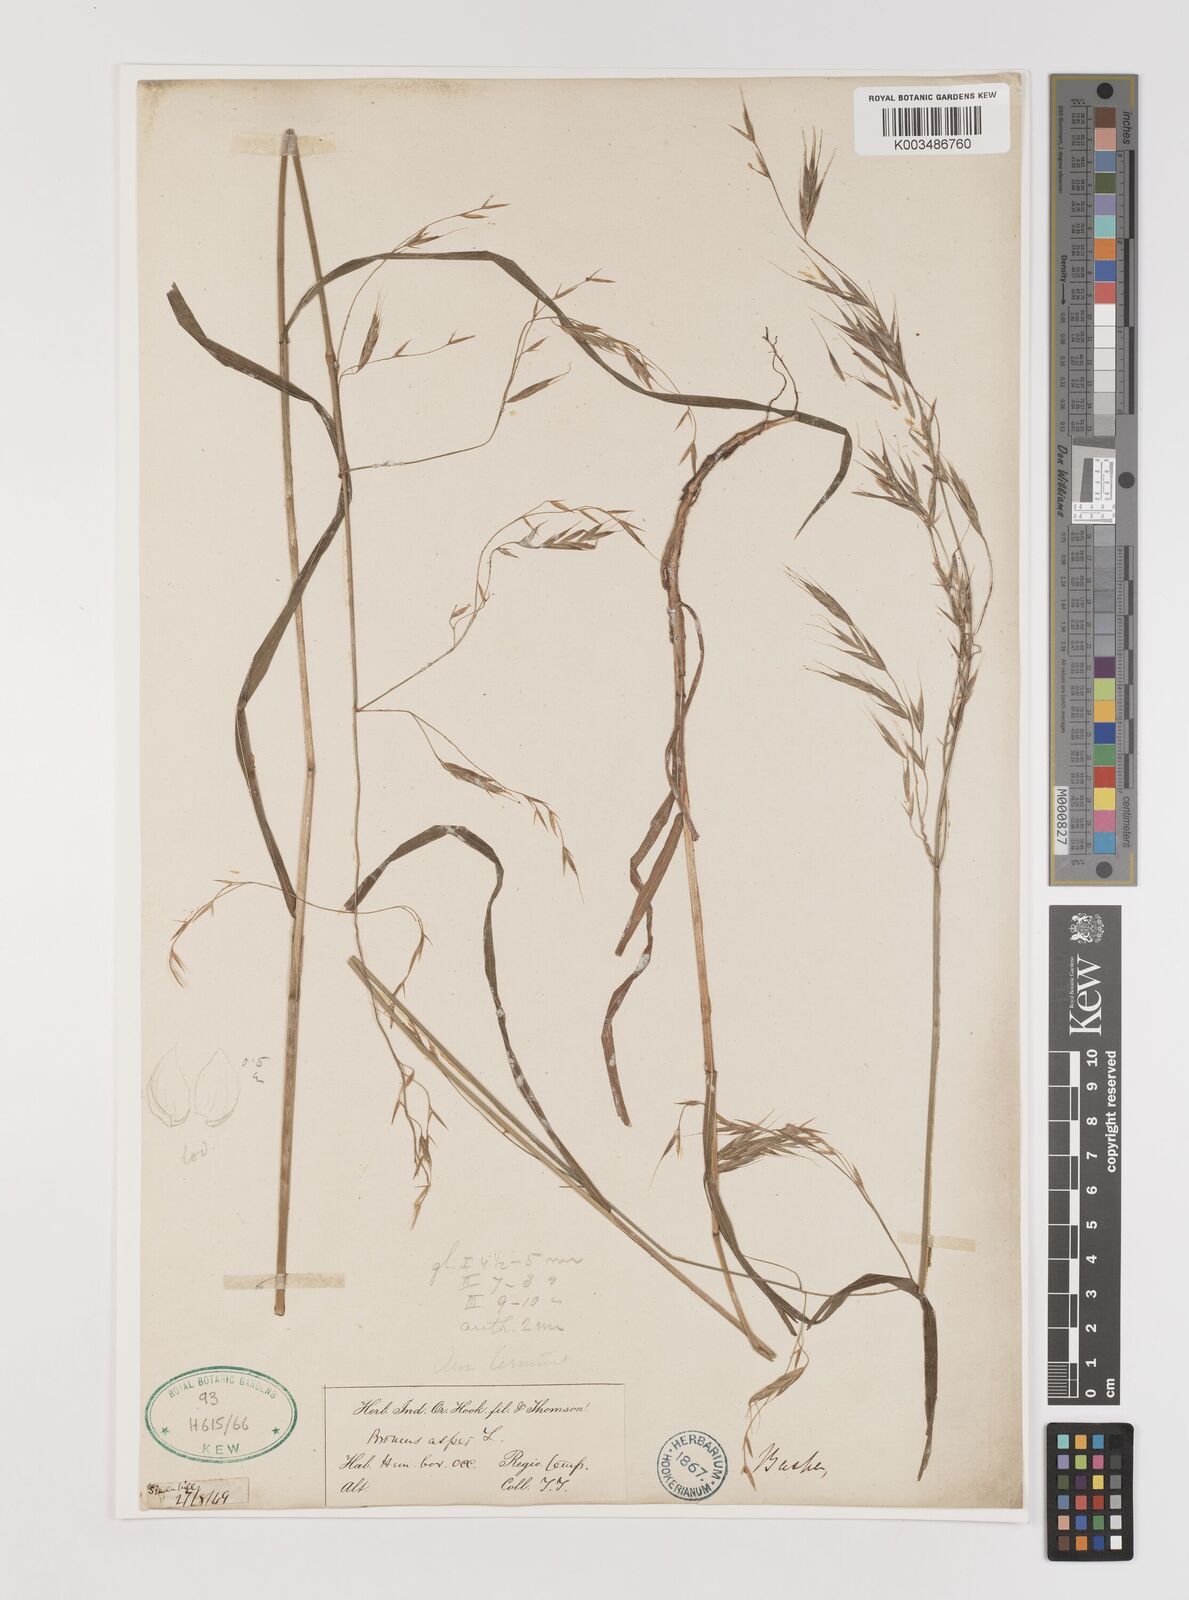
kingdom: Plantae
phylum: Tracheophyta
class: Liliopsida
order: Poales
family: Poaceae
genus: Brachypodium
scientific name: Brachypodium retusum
